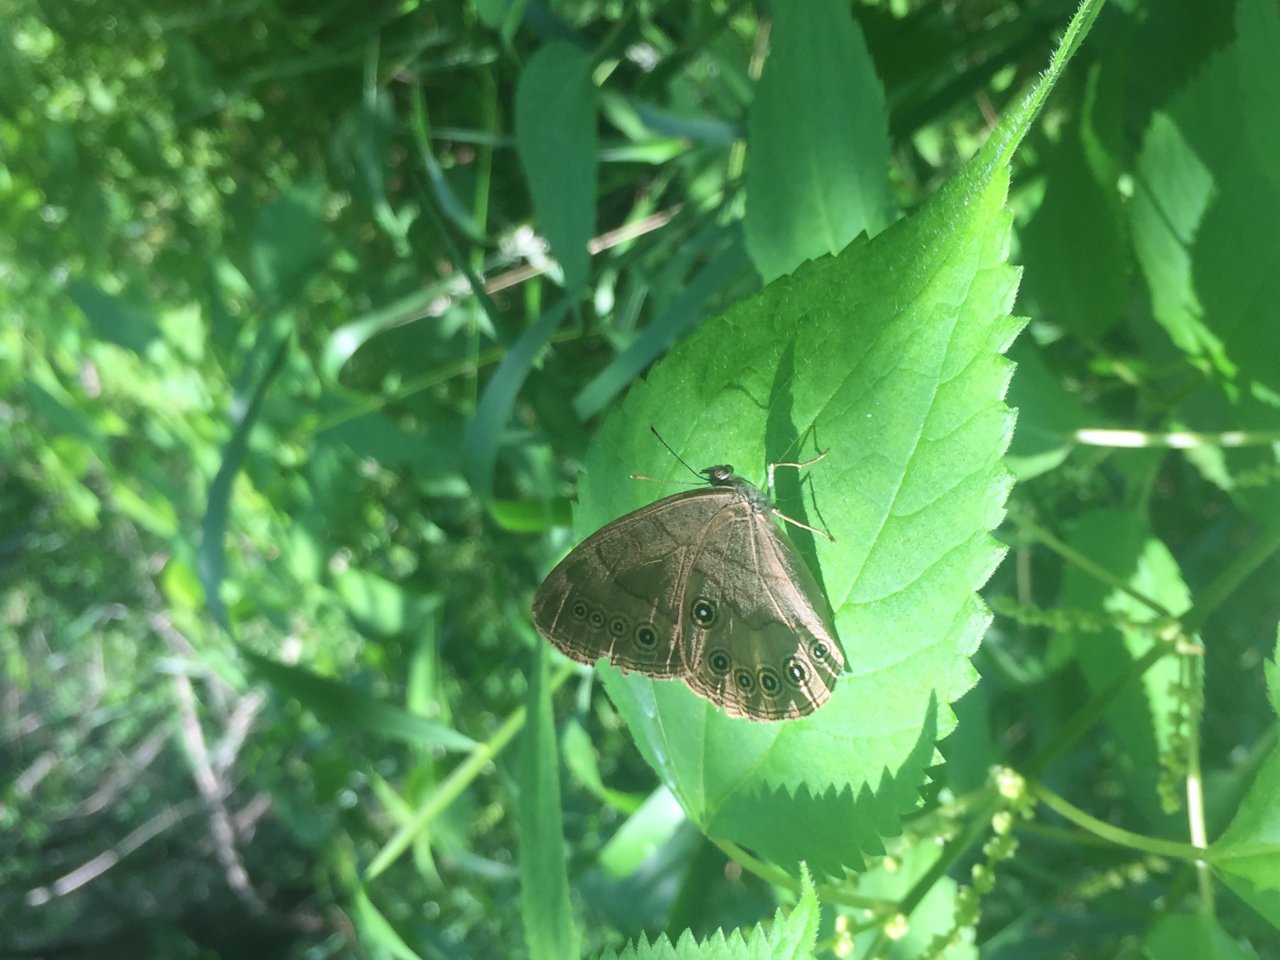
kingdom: Animalia
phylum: Arthropoda
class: Insecta
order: Lepidoptera
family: Nymphalidae
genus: Lethe
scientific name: Lethe eurydice
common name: Appalachian Eyed Brown
